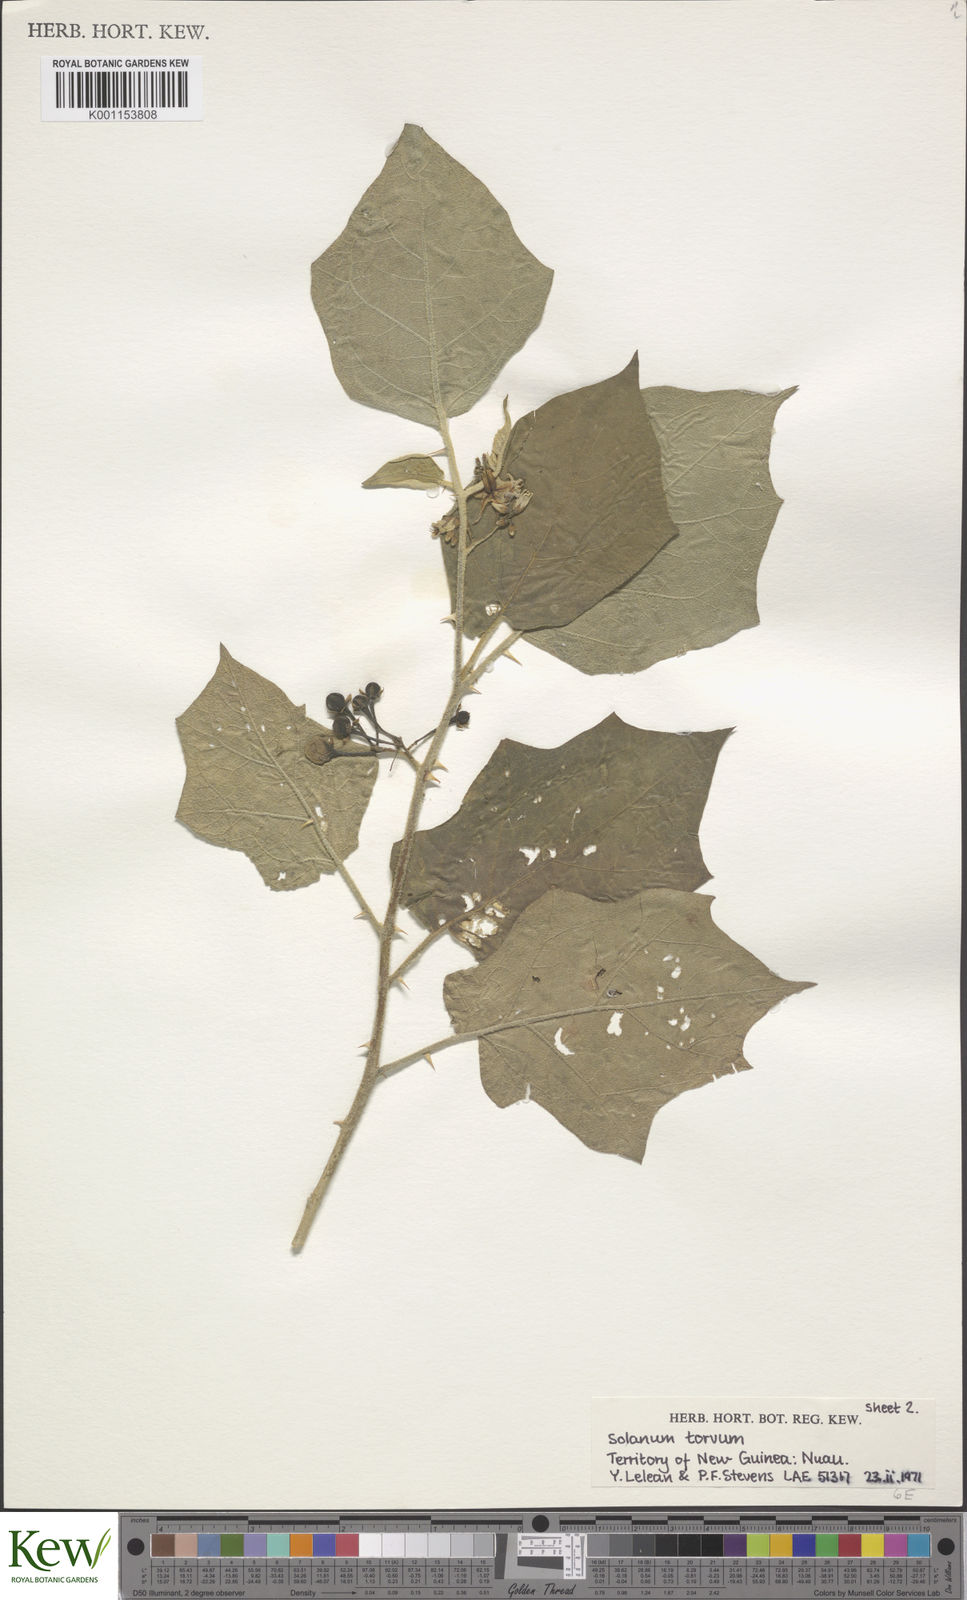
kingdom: Plantae
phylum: Tracheophyta
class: Magnoliopsida
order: Solanales
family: Solanaceae
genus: Solanum
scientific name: Solanum torvum
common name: Turkey berry
